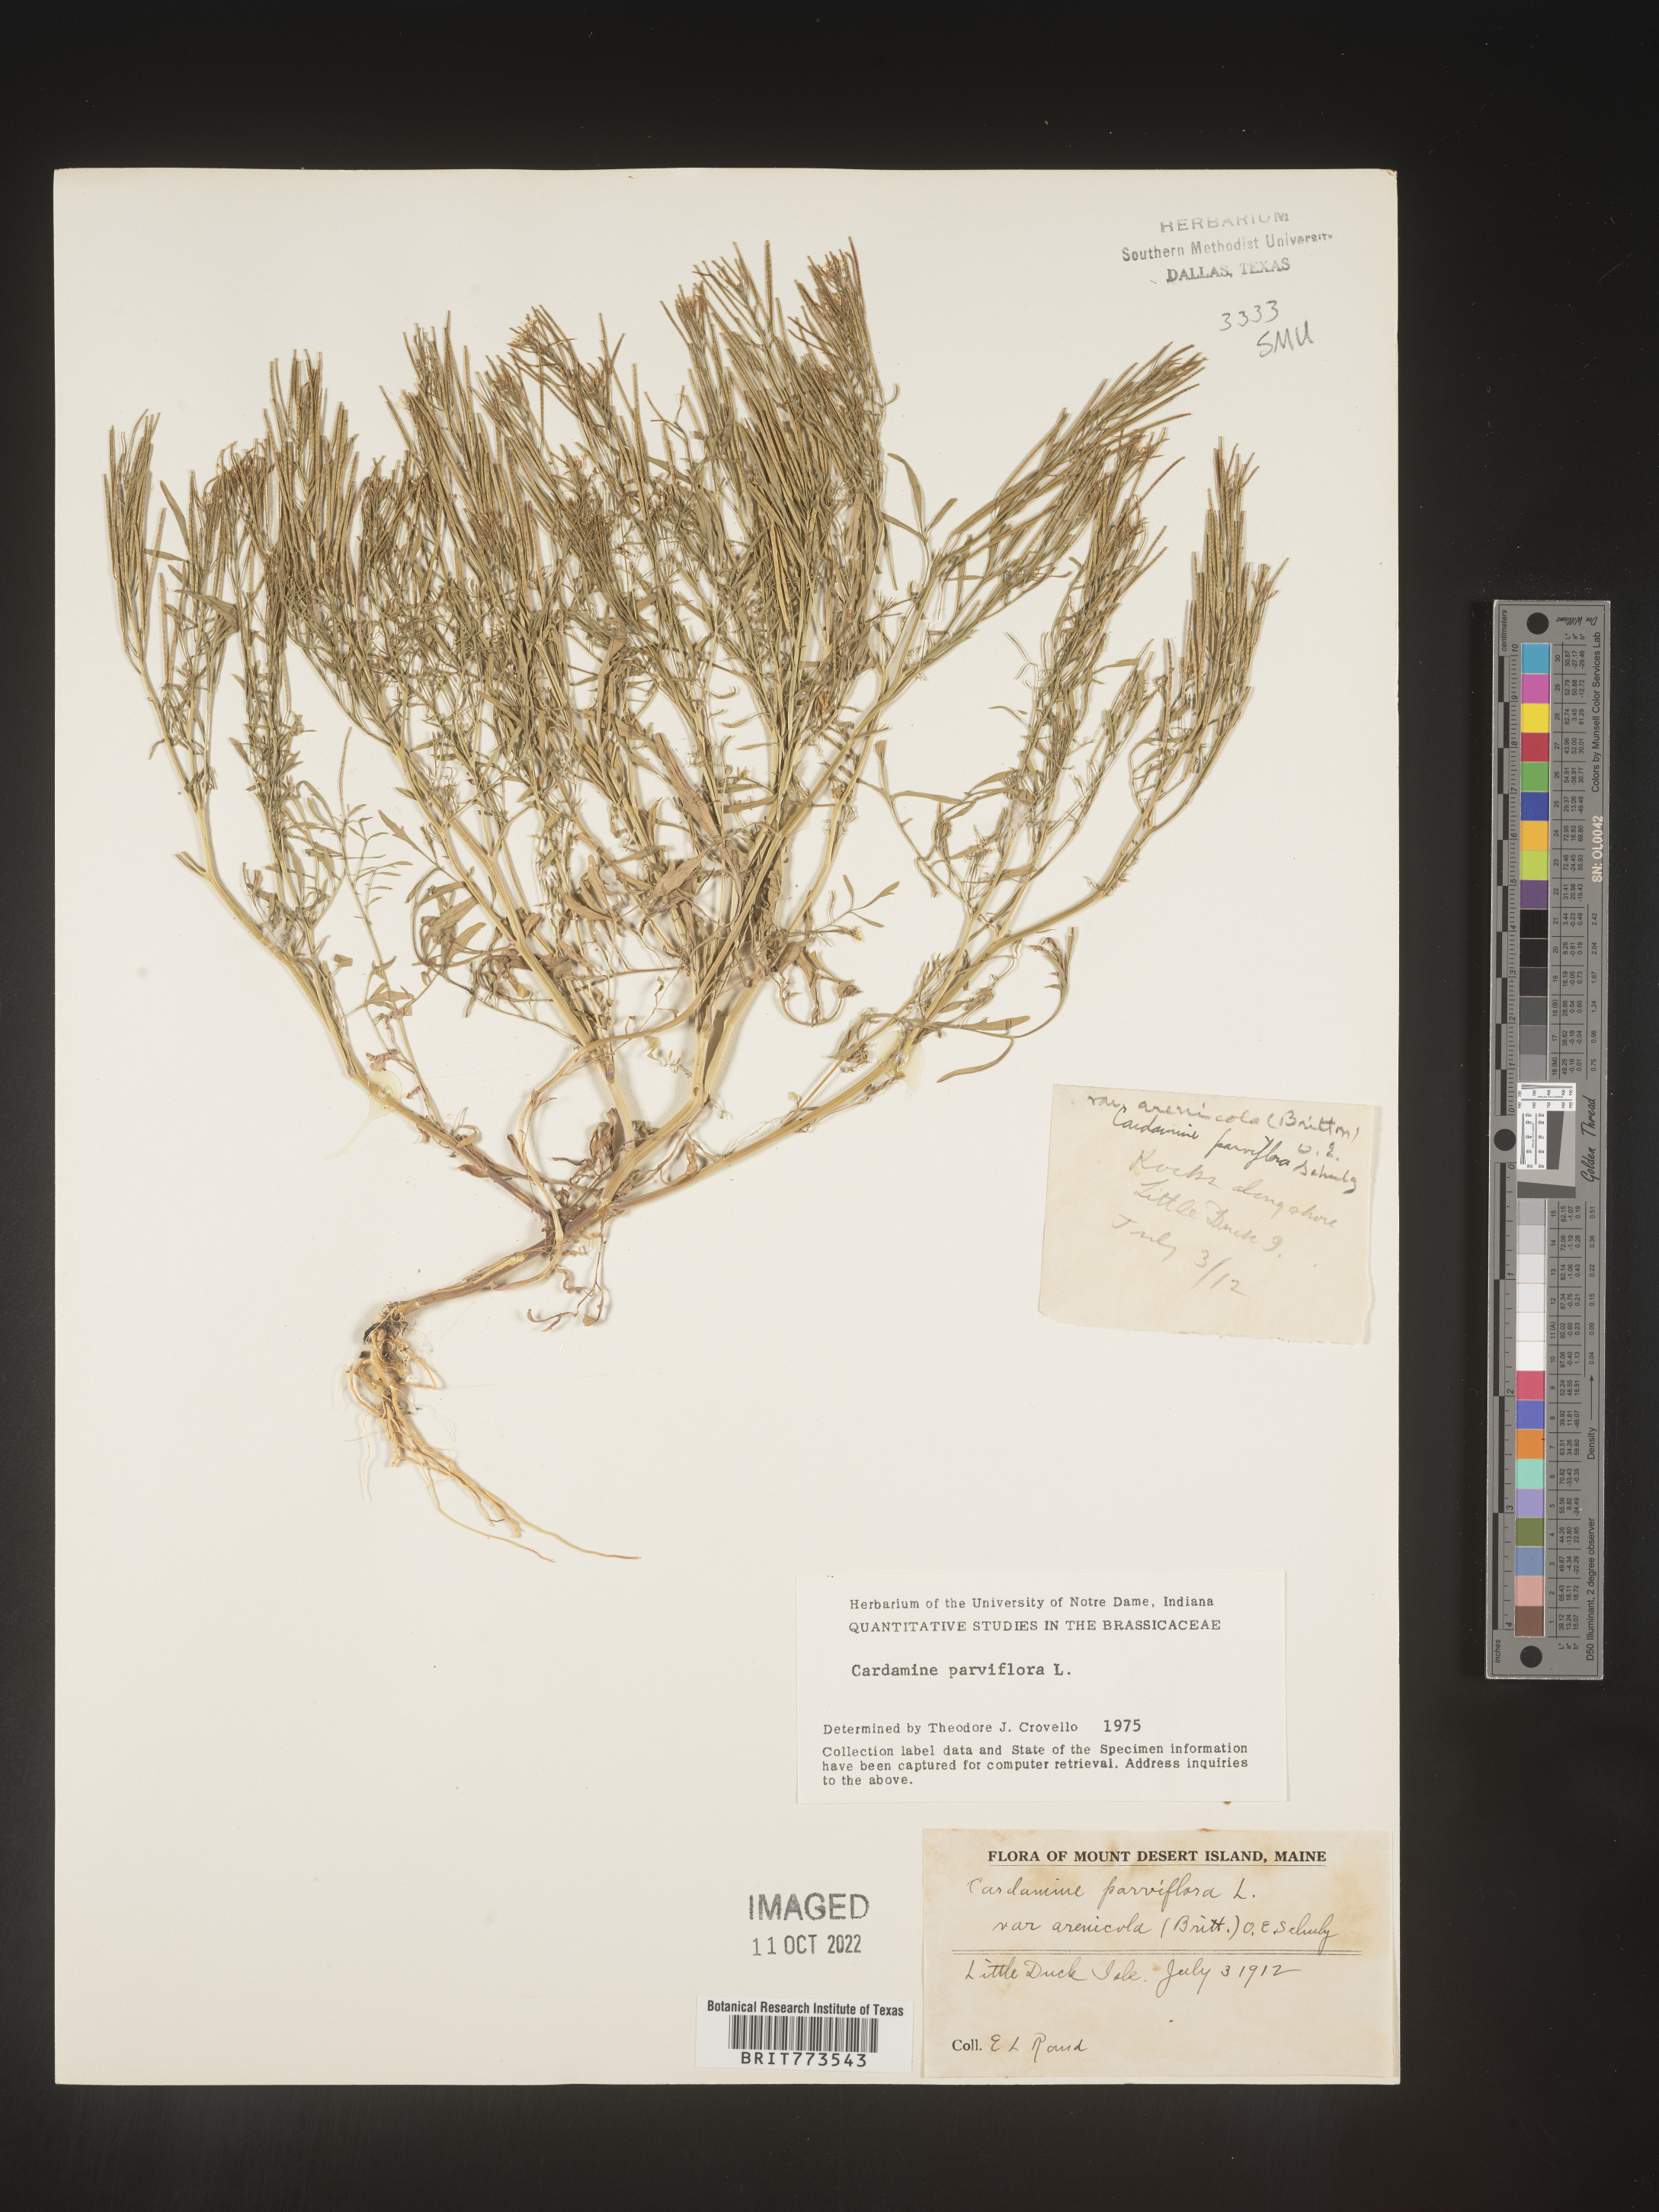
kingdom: Plantae
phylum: Tracheophyta
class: Magnoliopsida
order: Brassicales
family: Brassicaceae
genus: Cardamine
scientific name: Cardamine parviflora
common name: Sand bittercress
